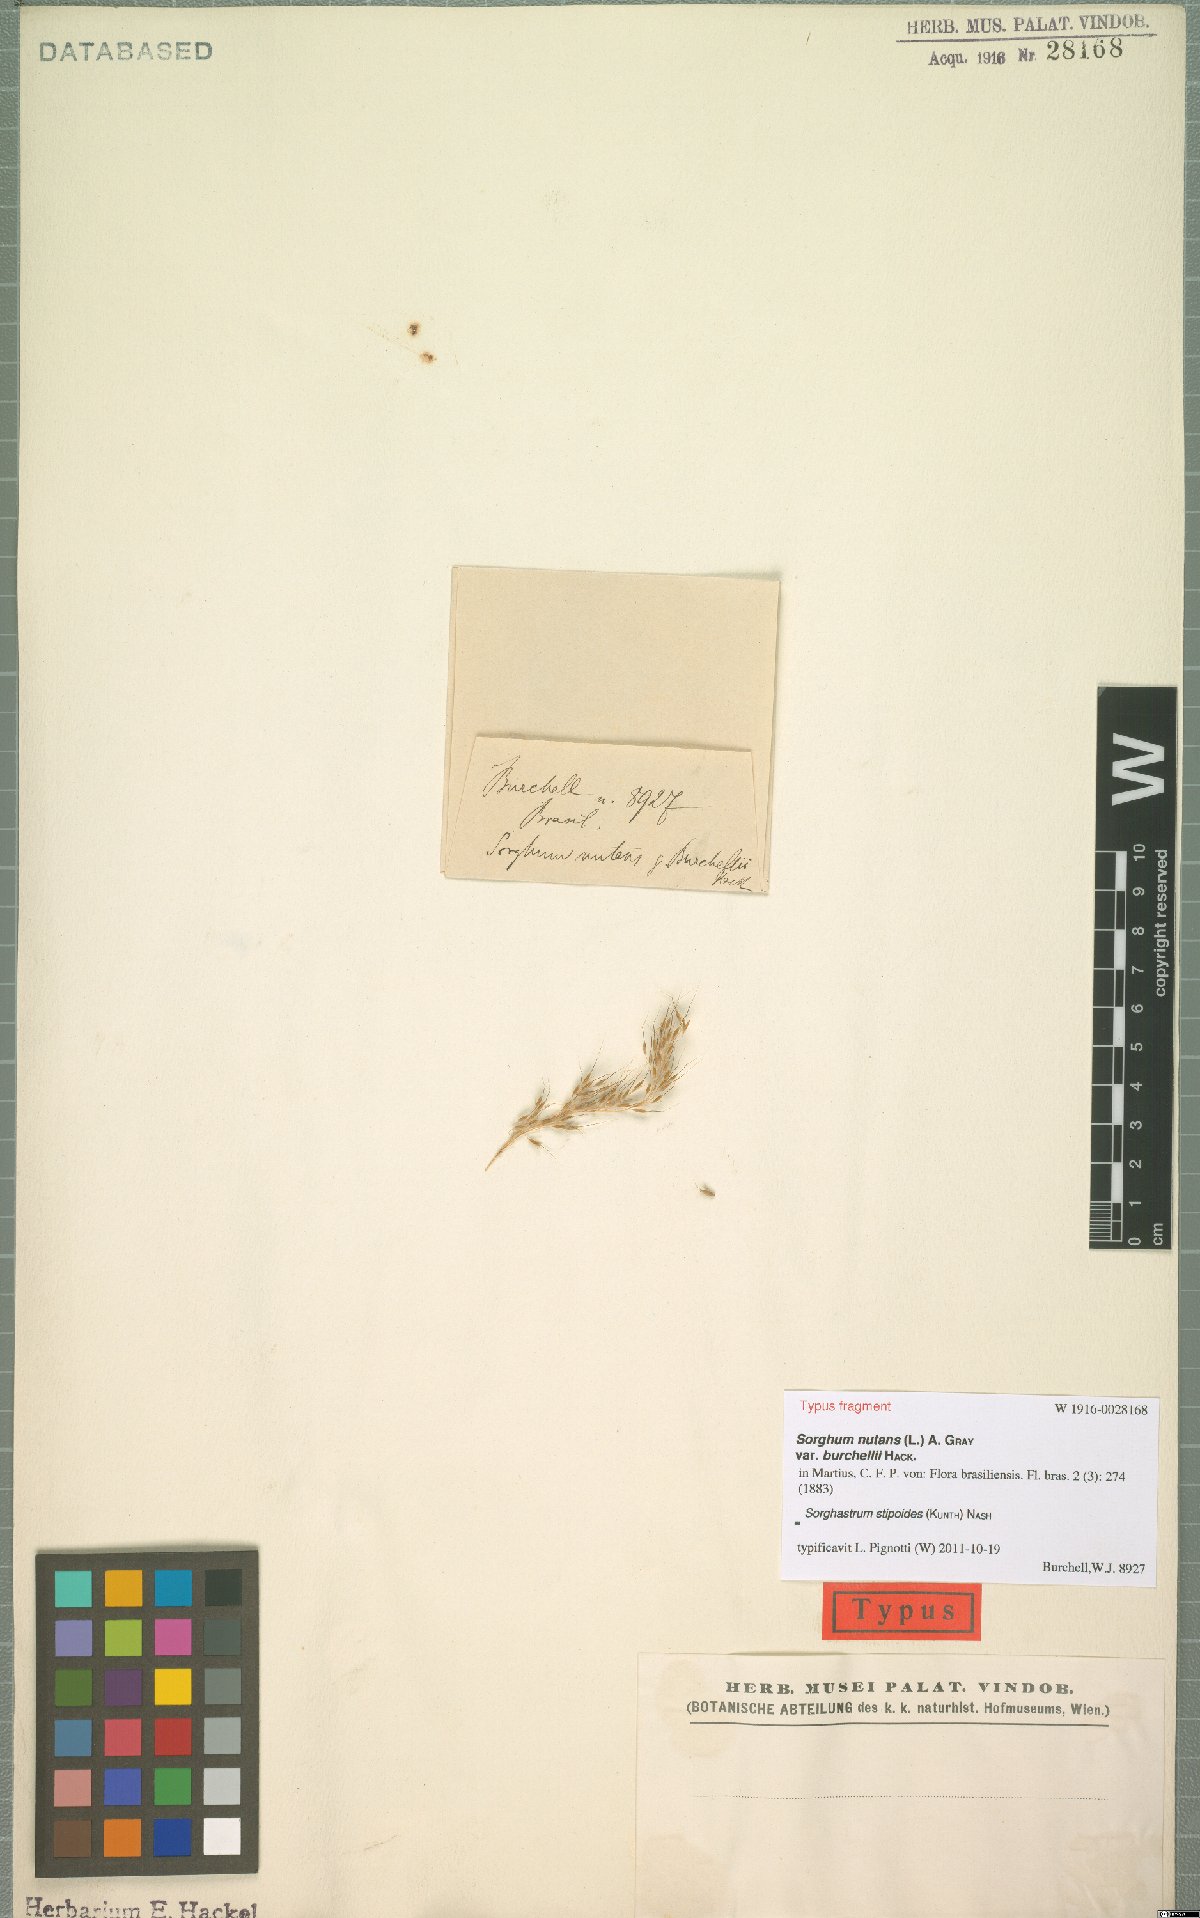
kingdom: Plantae
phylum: Tracheophyta
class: Liliopsida
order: Poales
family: Poaceae
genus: Sorghastrum
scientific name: Sorghastrum stipoides
